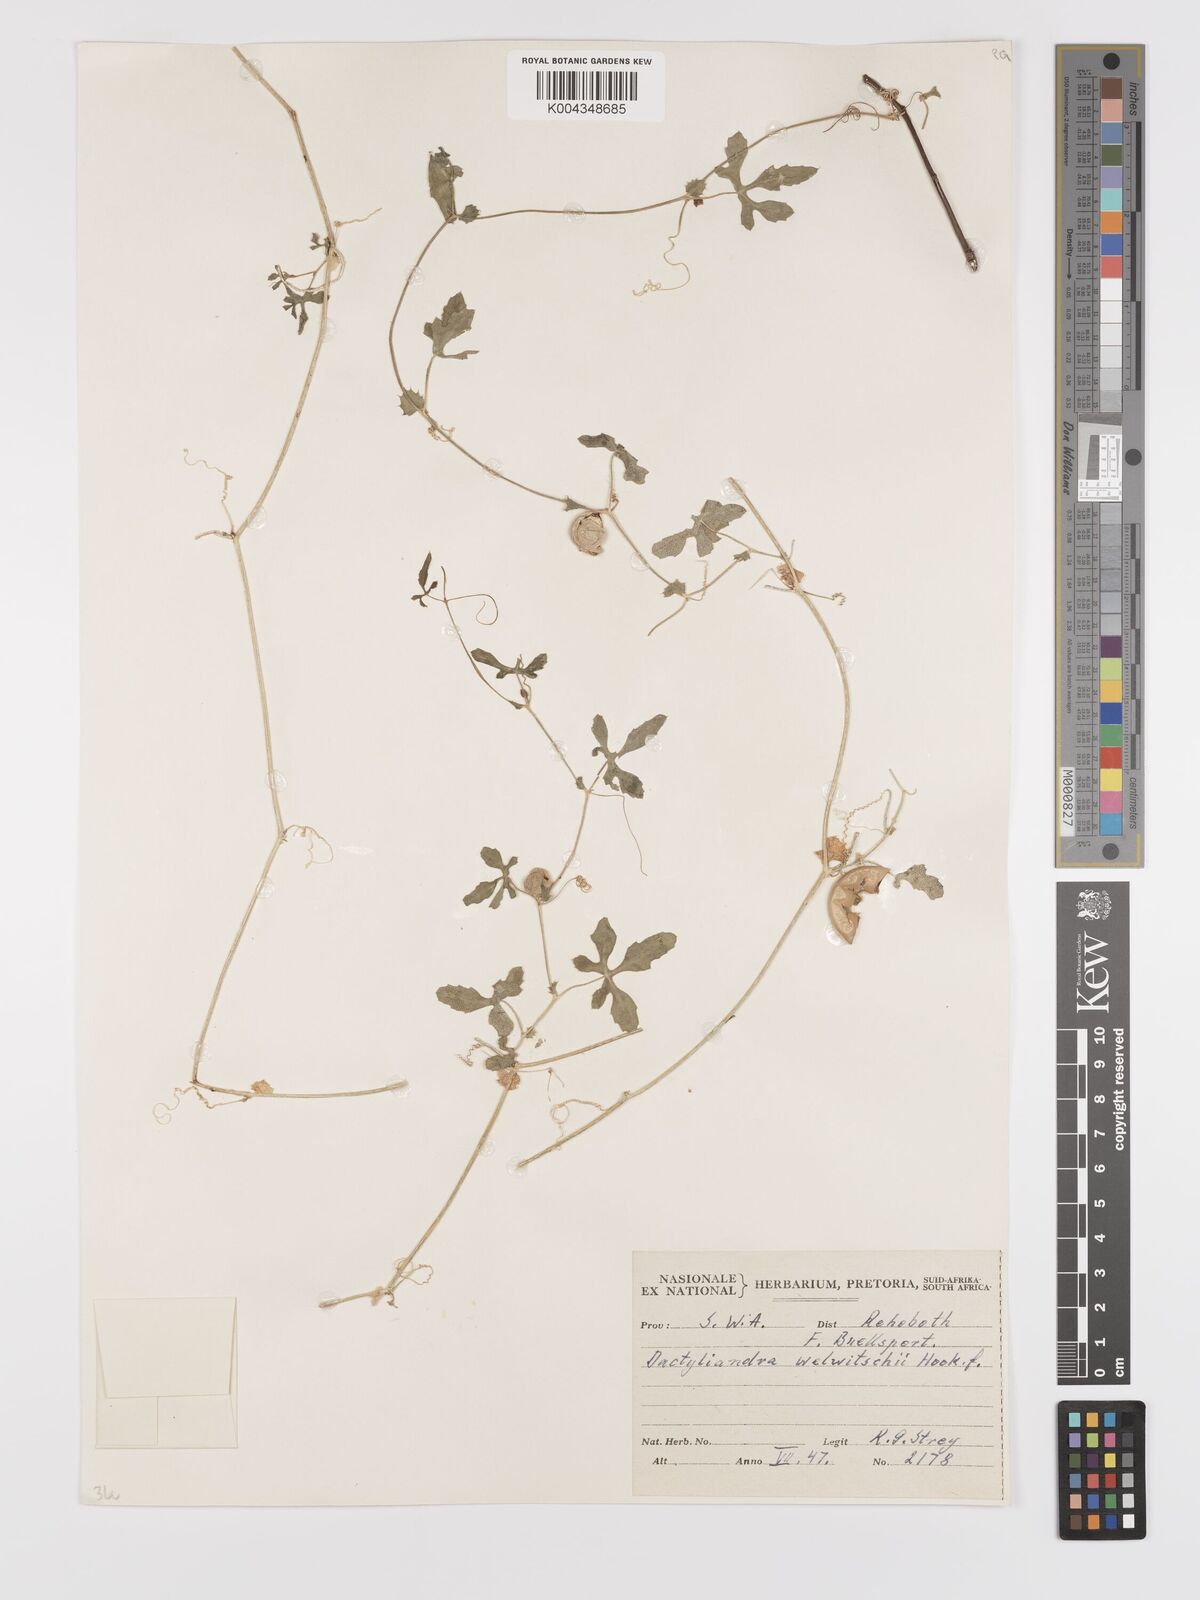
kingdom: Plantae
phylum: Tracheophyta
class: Magnoliopsida
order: Cucurbitales
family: Cucurbitaceae
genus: Dactyliandra
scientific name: Dactyliandra welwitschii
